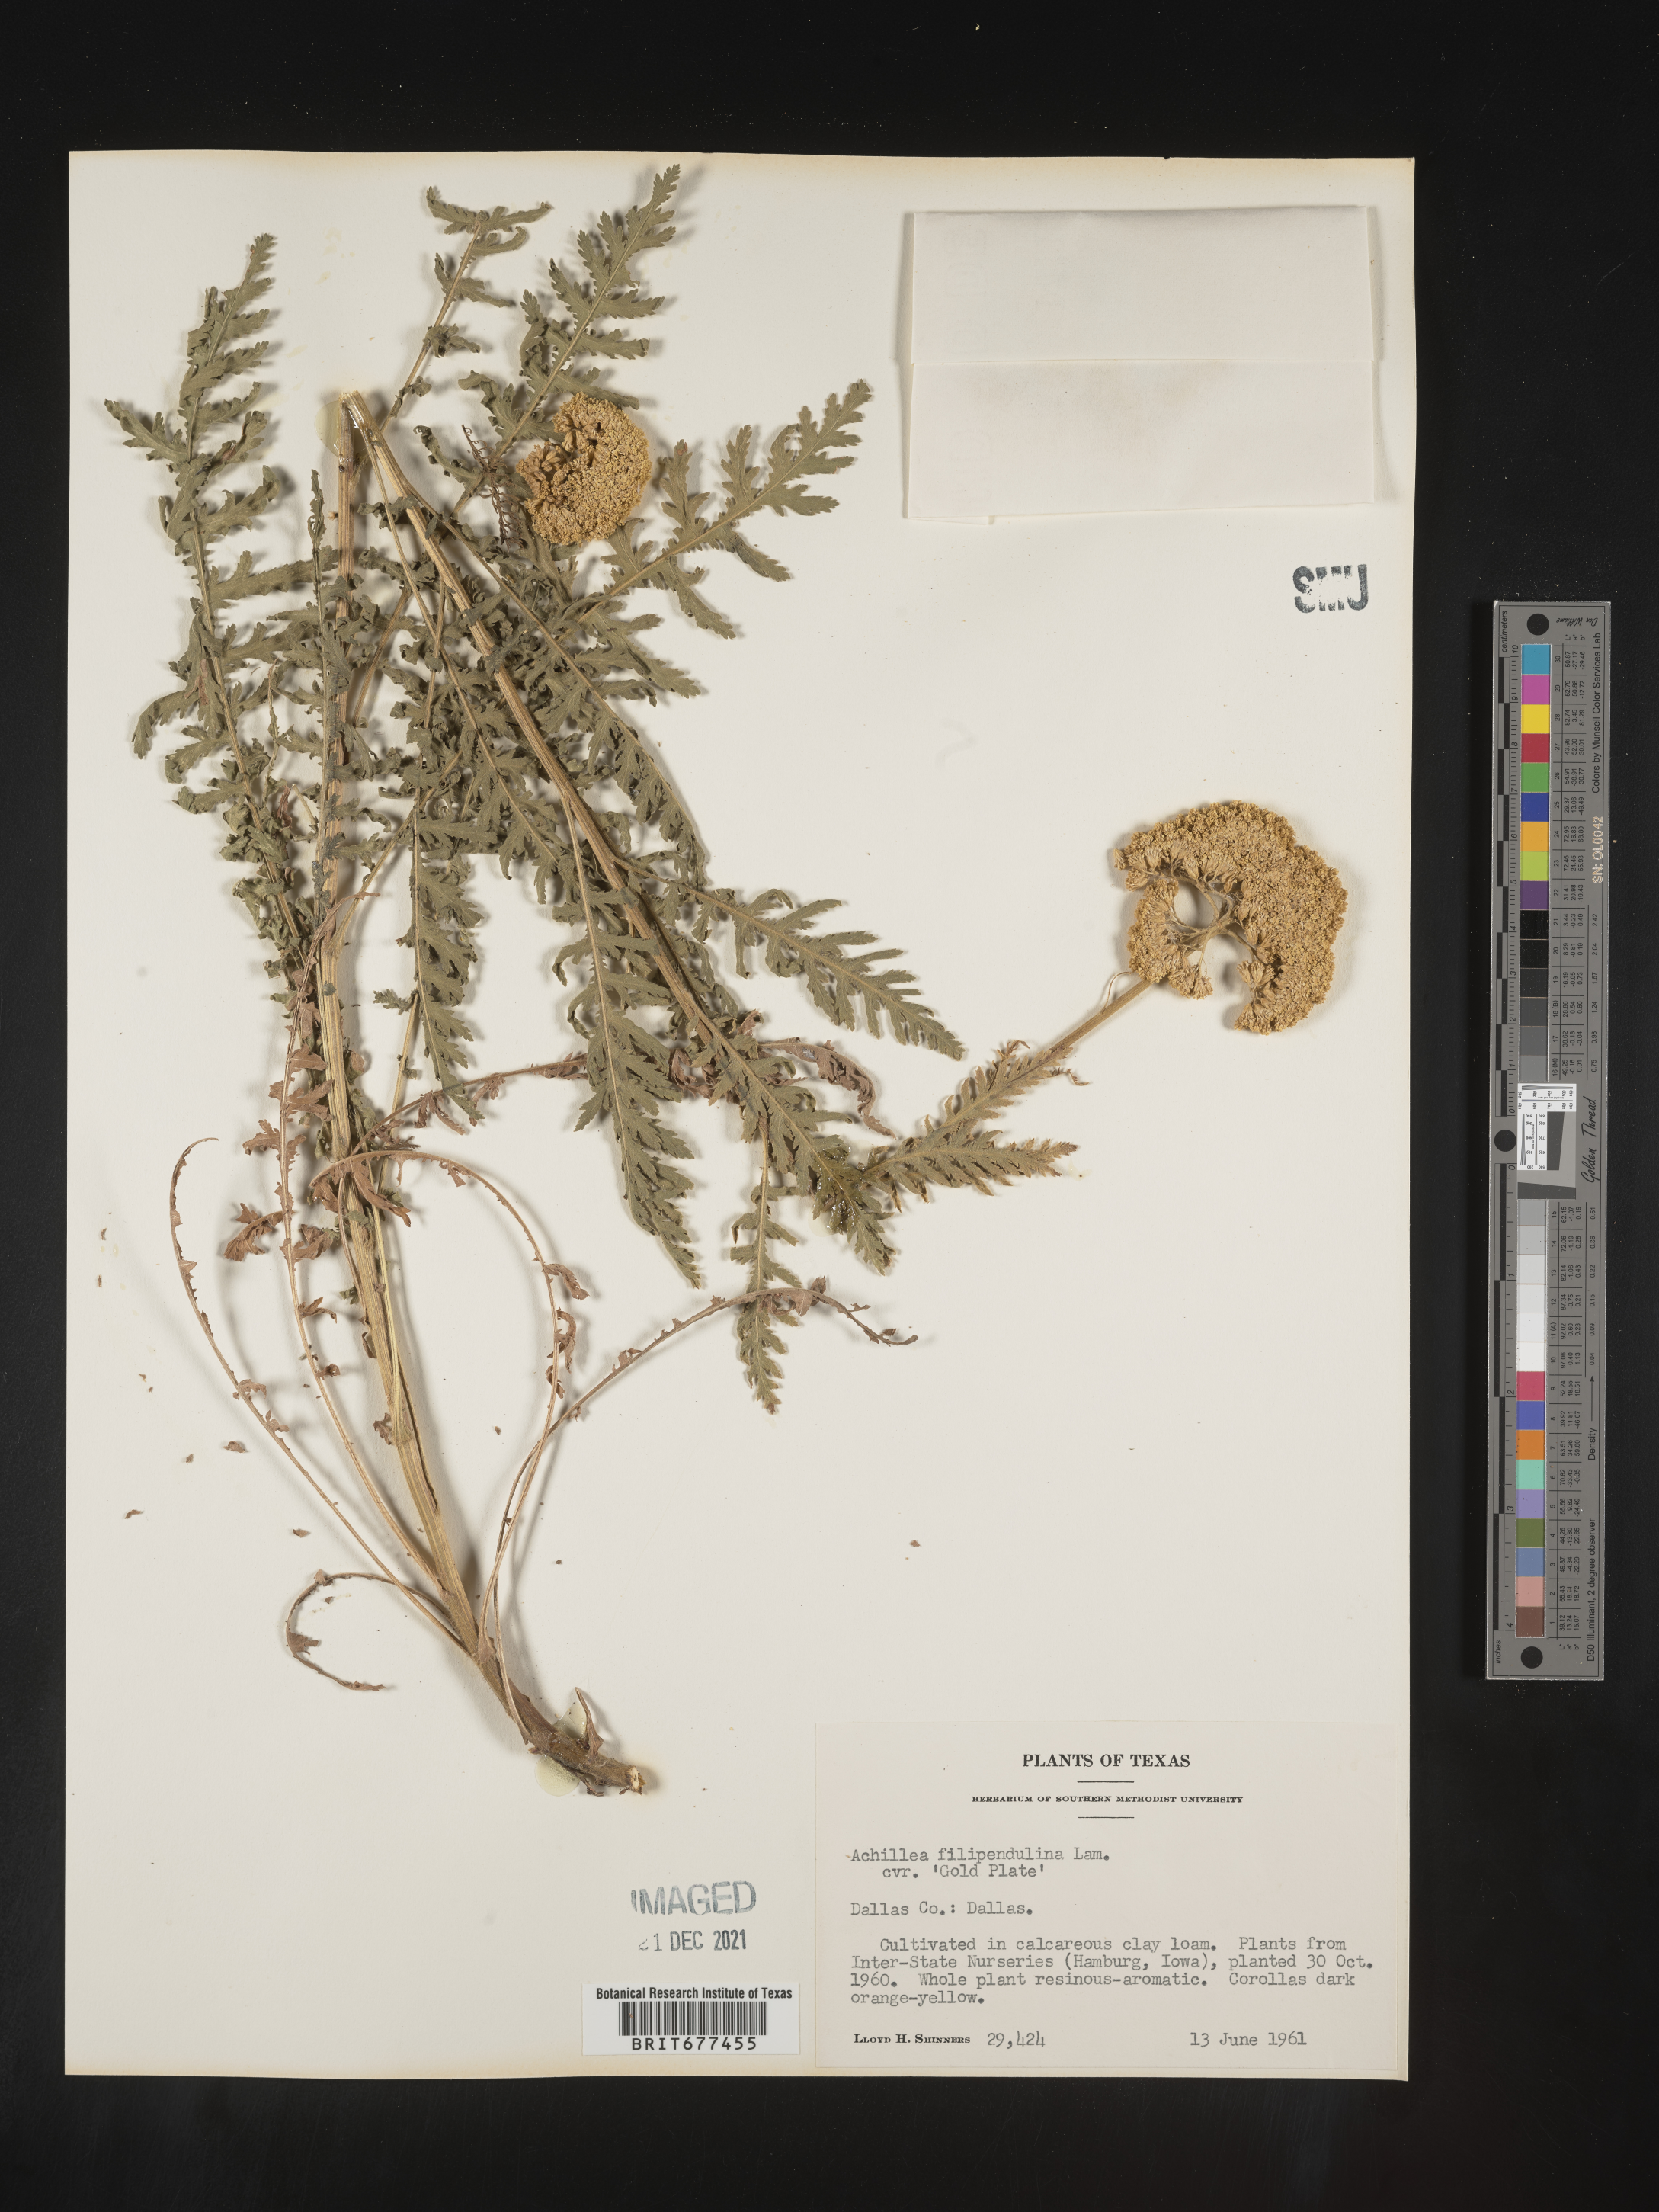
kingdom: Plantae
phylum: Tracheophyta
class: Magnoliopsida
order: Asterales
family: Asteraceae
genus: Achillea
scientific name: Achillea
